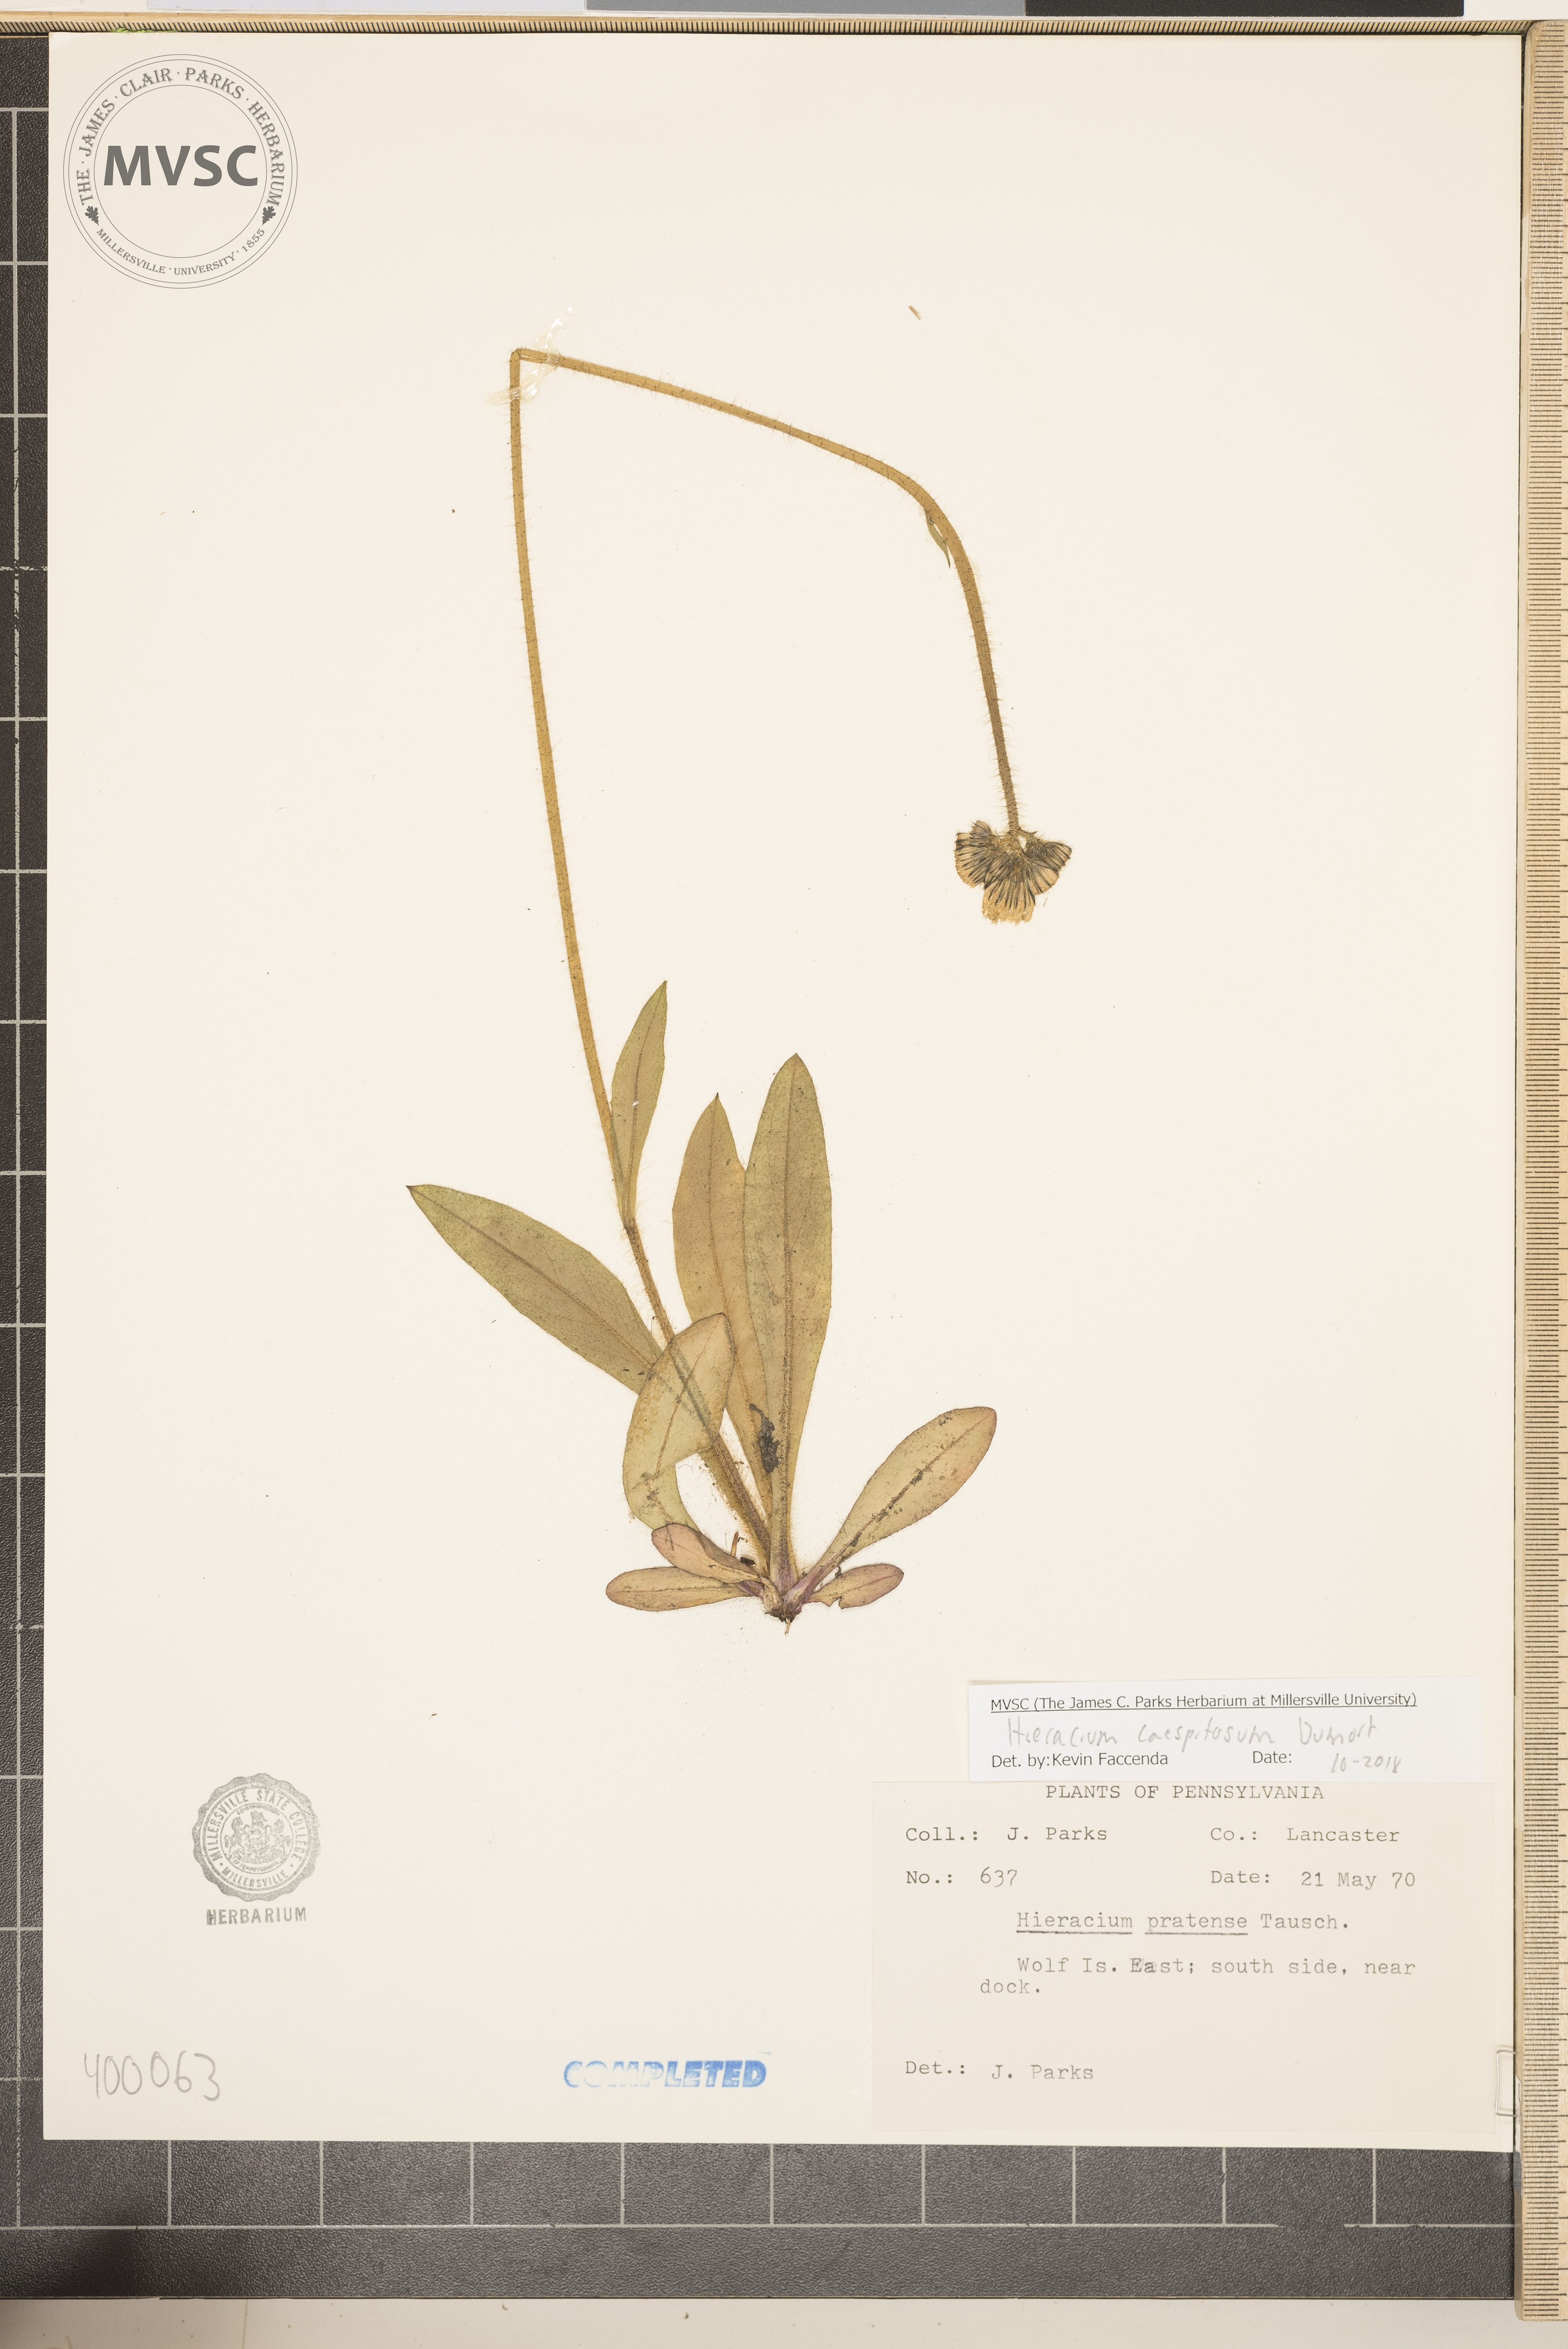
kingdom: Plantae
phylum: Tracheophyta
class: Magnoliopsida
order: Asterales
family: Asteraceae
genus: Pilosella
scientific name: Pilosella caespitosa
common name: Yellow fox-and-cubs
